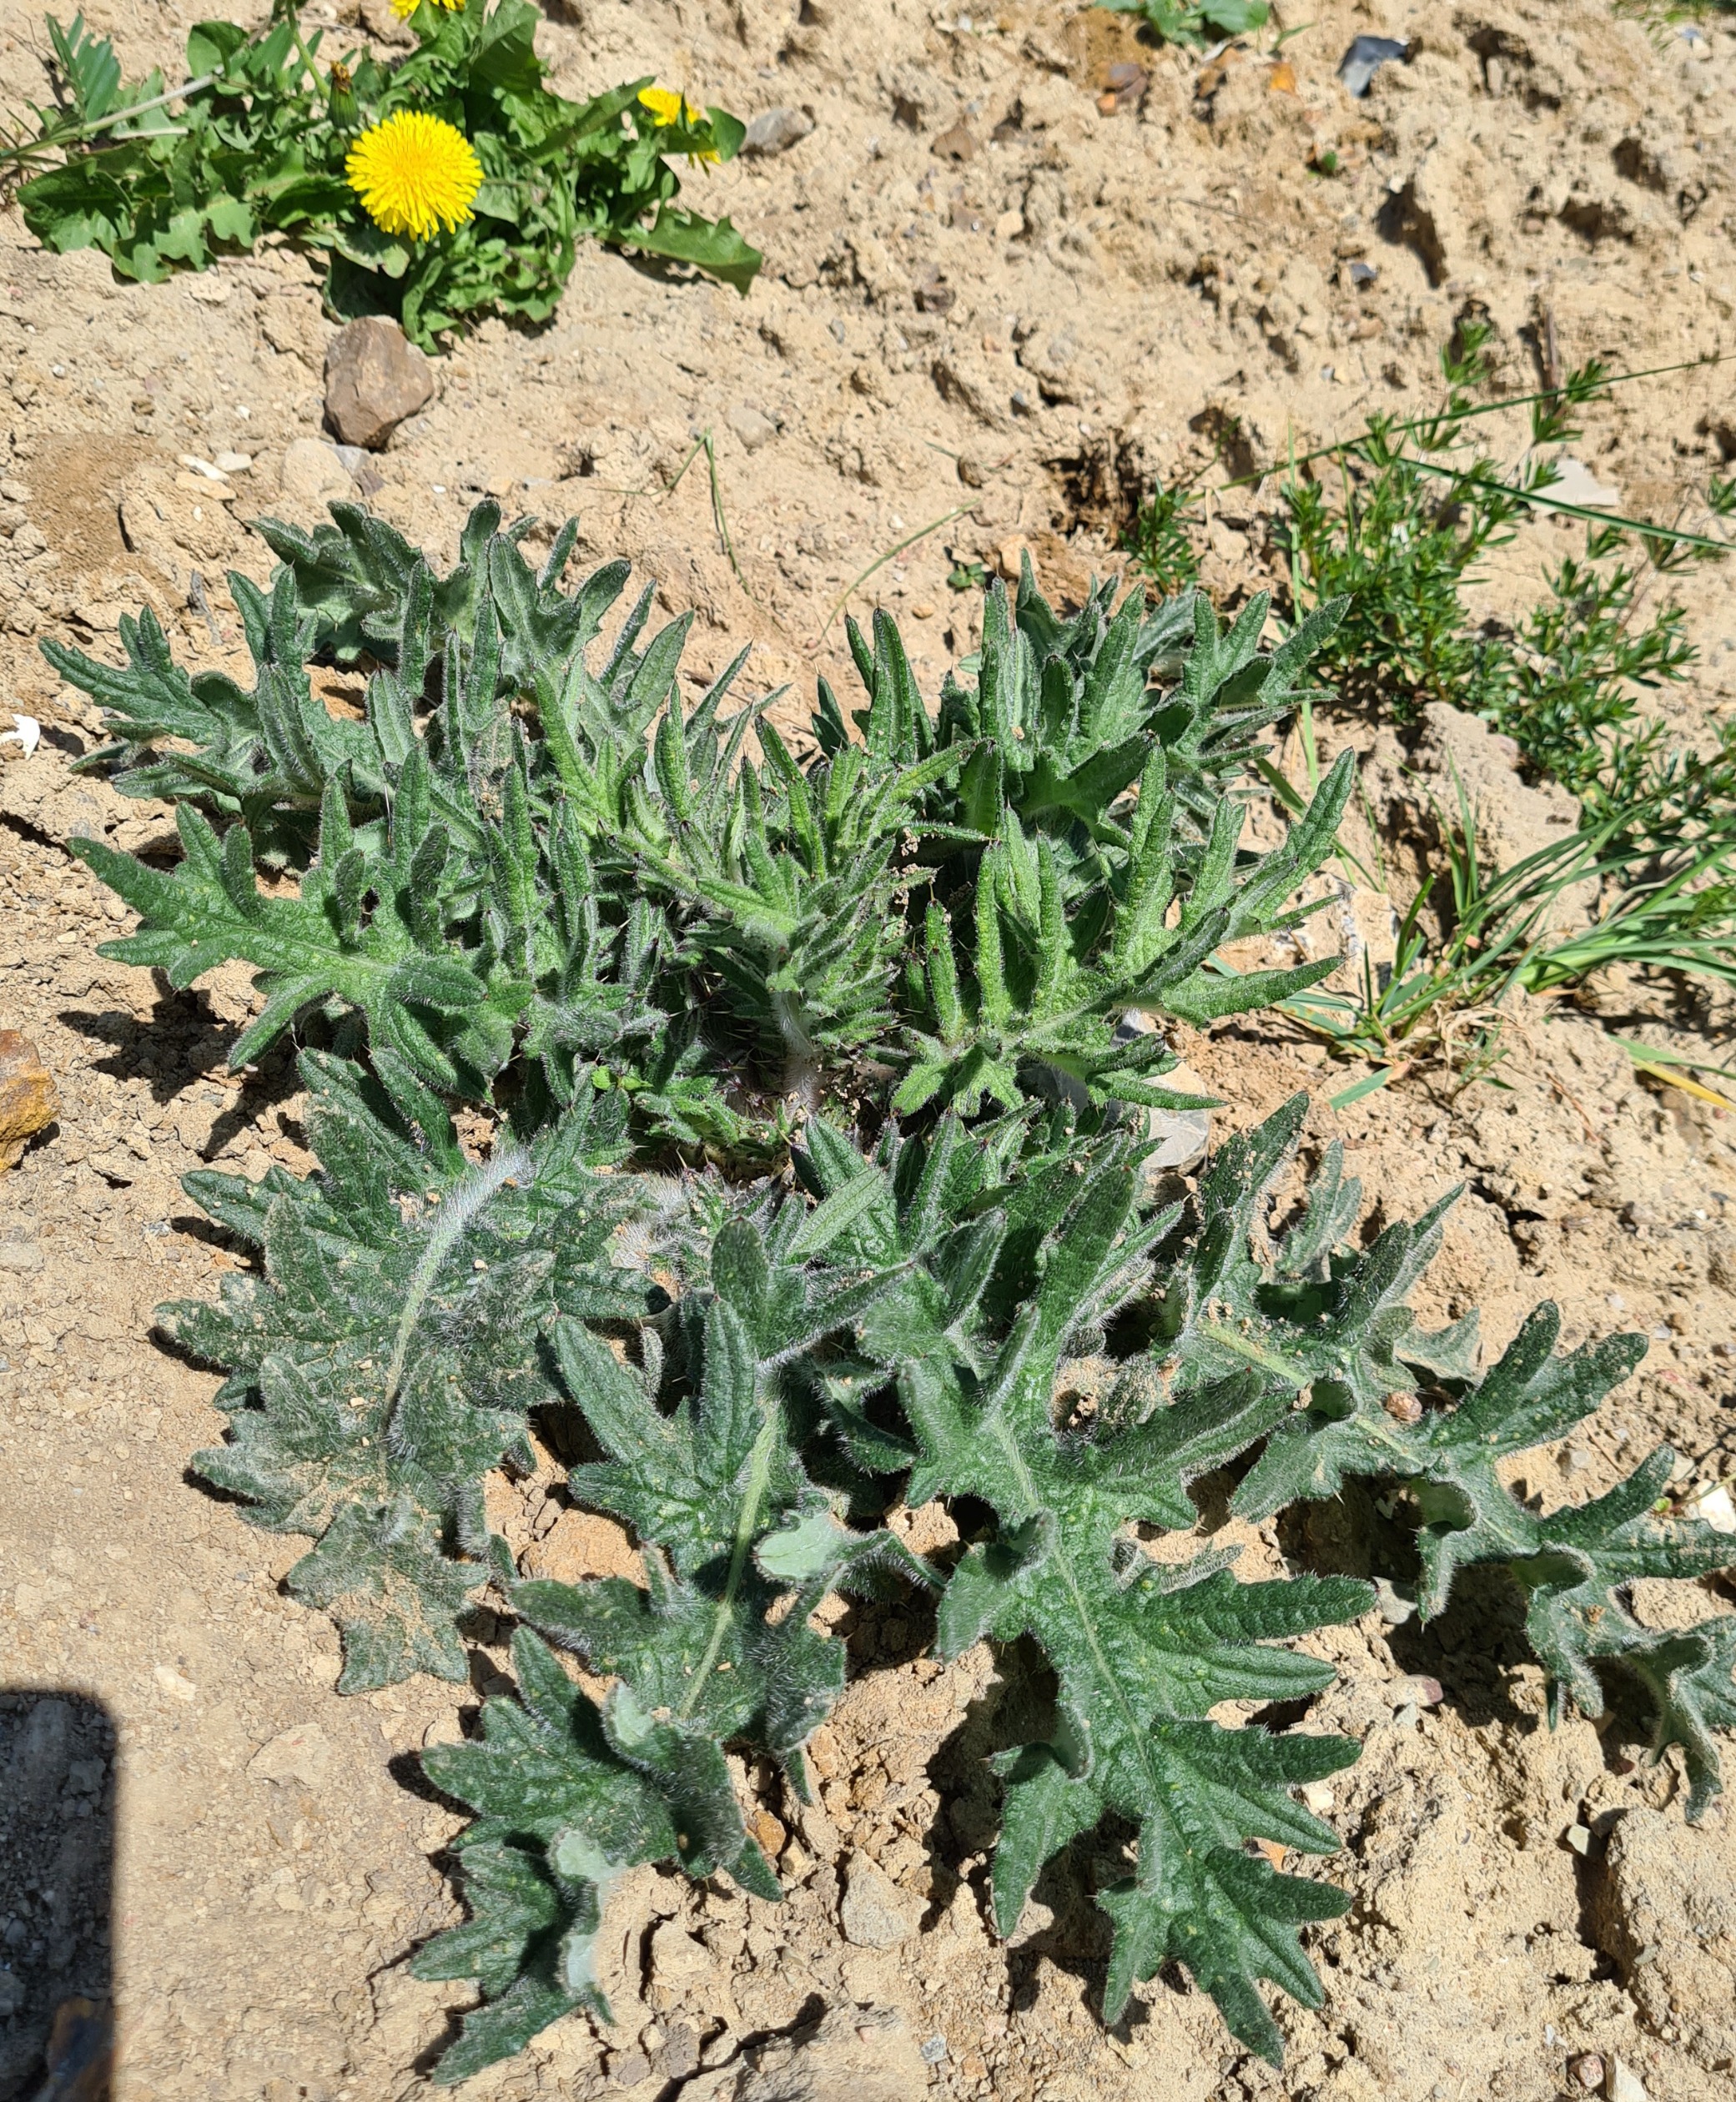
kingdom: Plantae
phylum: Tracheophyta
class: Magnoliopsida
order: Asterales
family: Asteraceae
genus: Cirsium
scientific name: Cirsium vulgare
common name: Horse-tidsel
